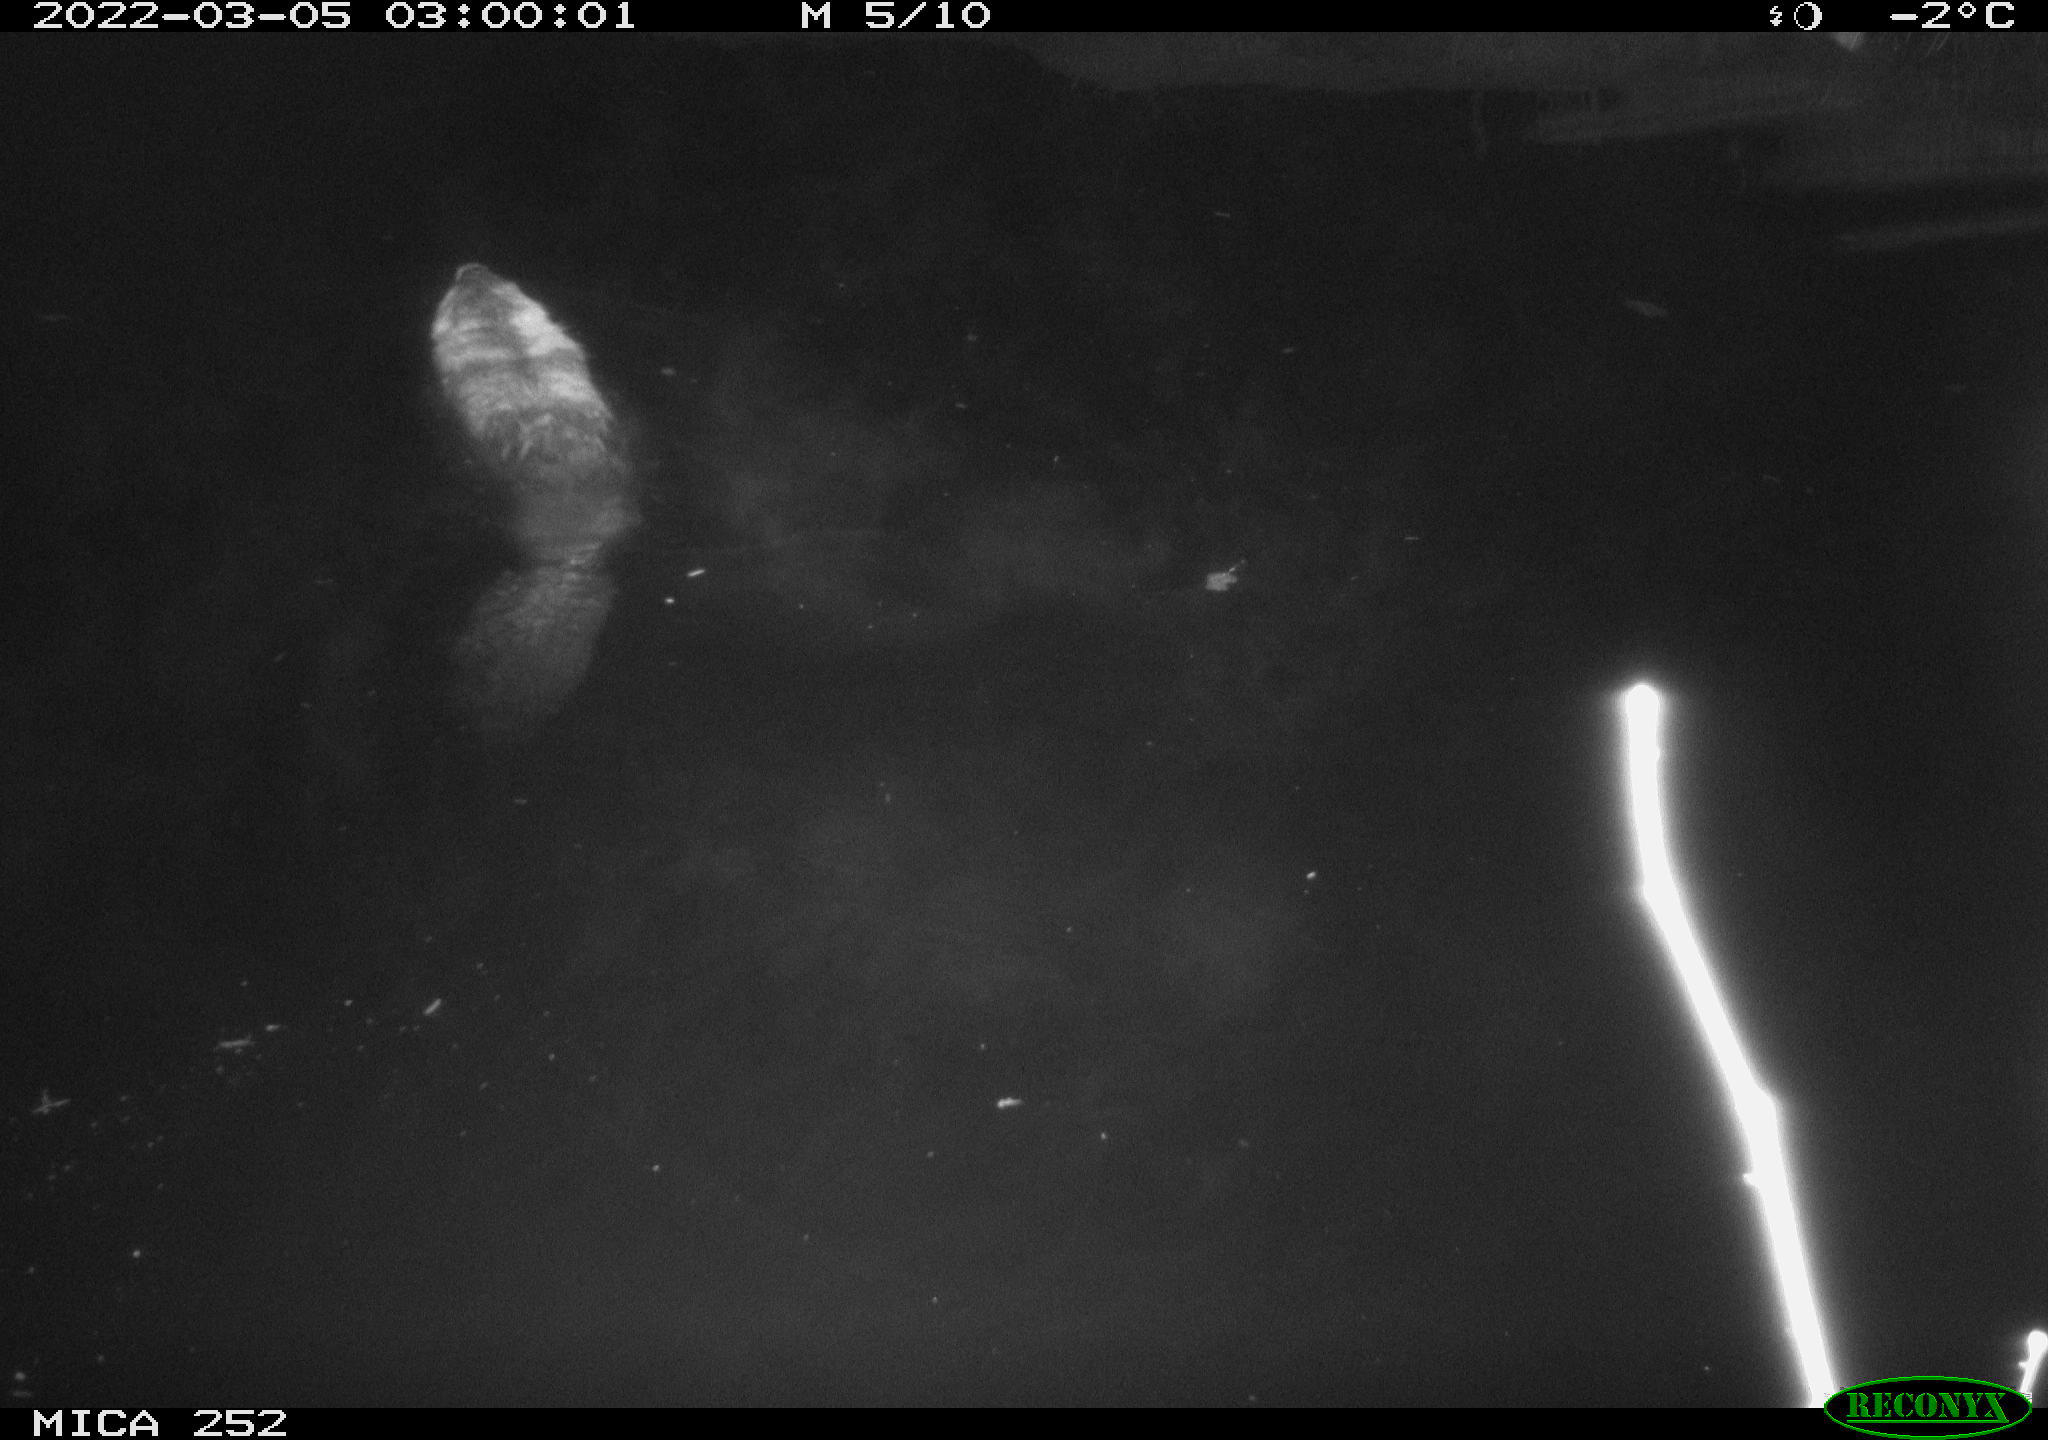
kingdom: Animalia
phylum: Chordata
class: Mammalia
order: Rodentia
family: Castoridae
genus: Castor
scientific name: Castor fiber
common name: Eurasian beaver
